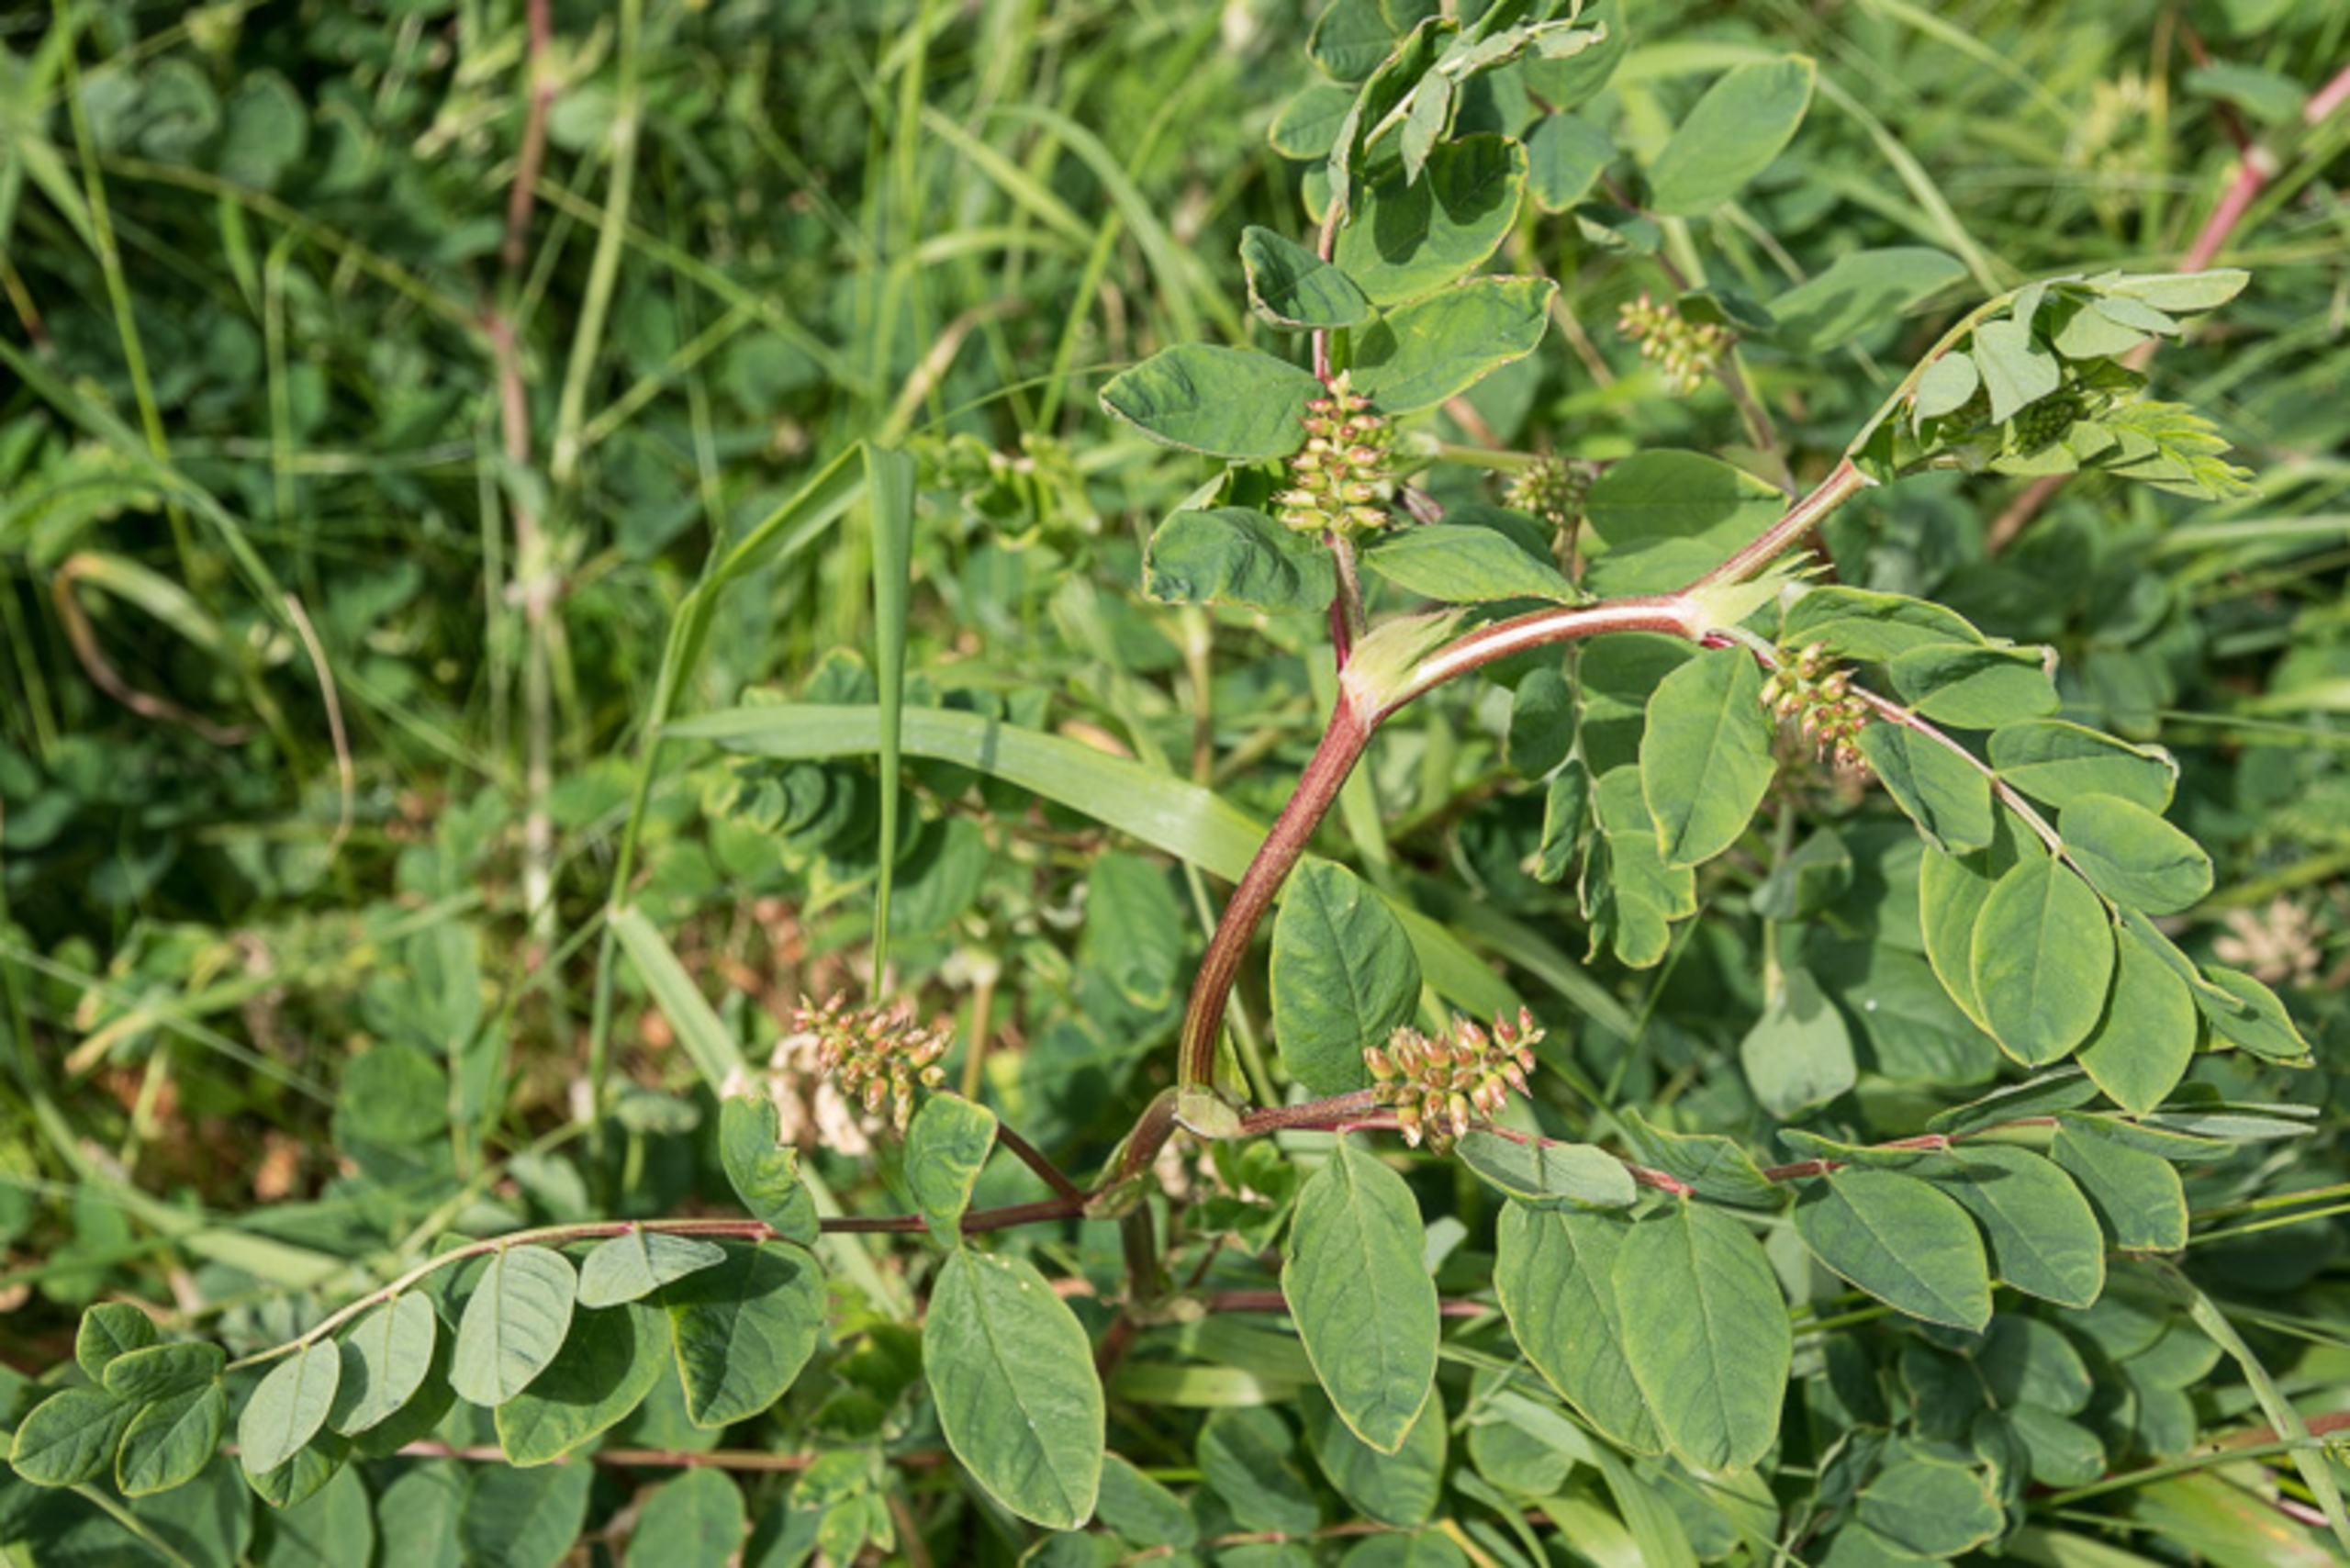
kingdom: Plantae
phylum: Tracheophyta
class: Magnoliopsida
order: Fabales
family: Fabaceae
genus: Astragalus
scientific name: Astragalus glycyphyllos
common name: Sød astragel
